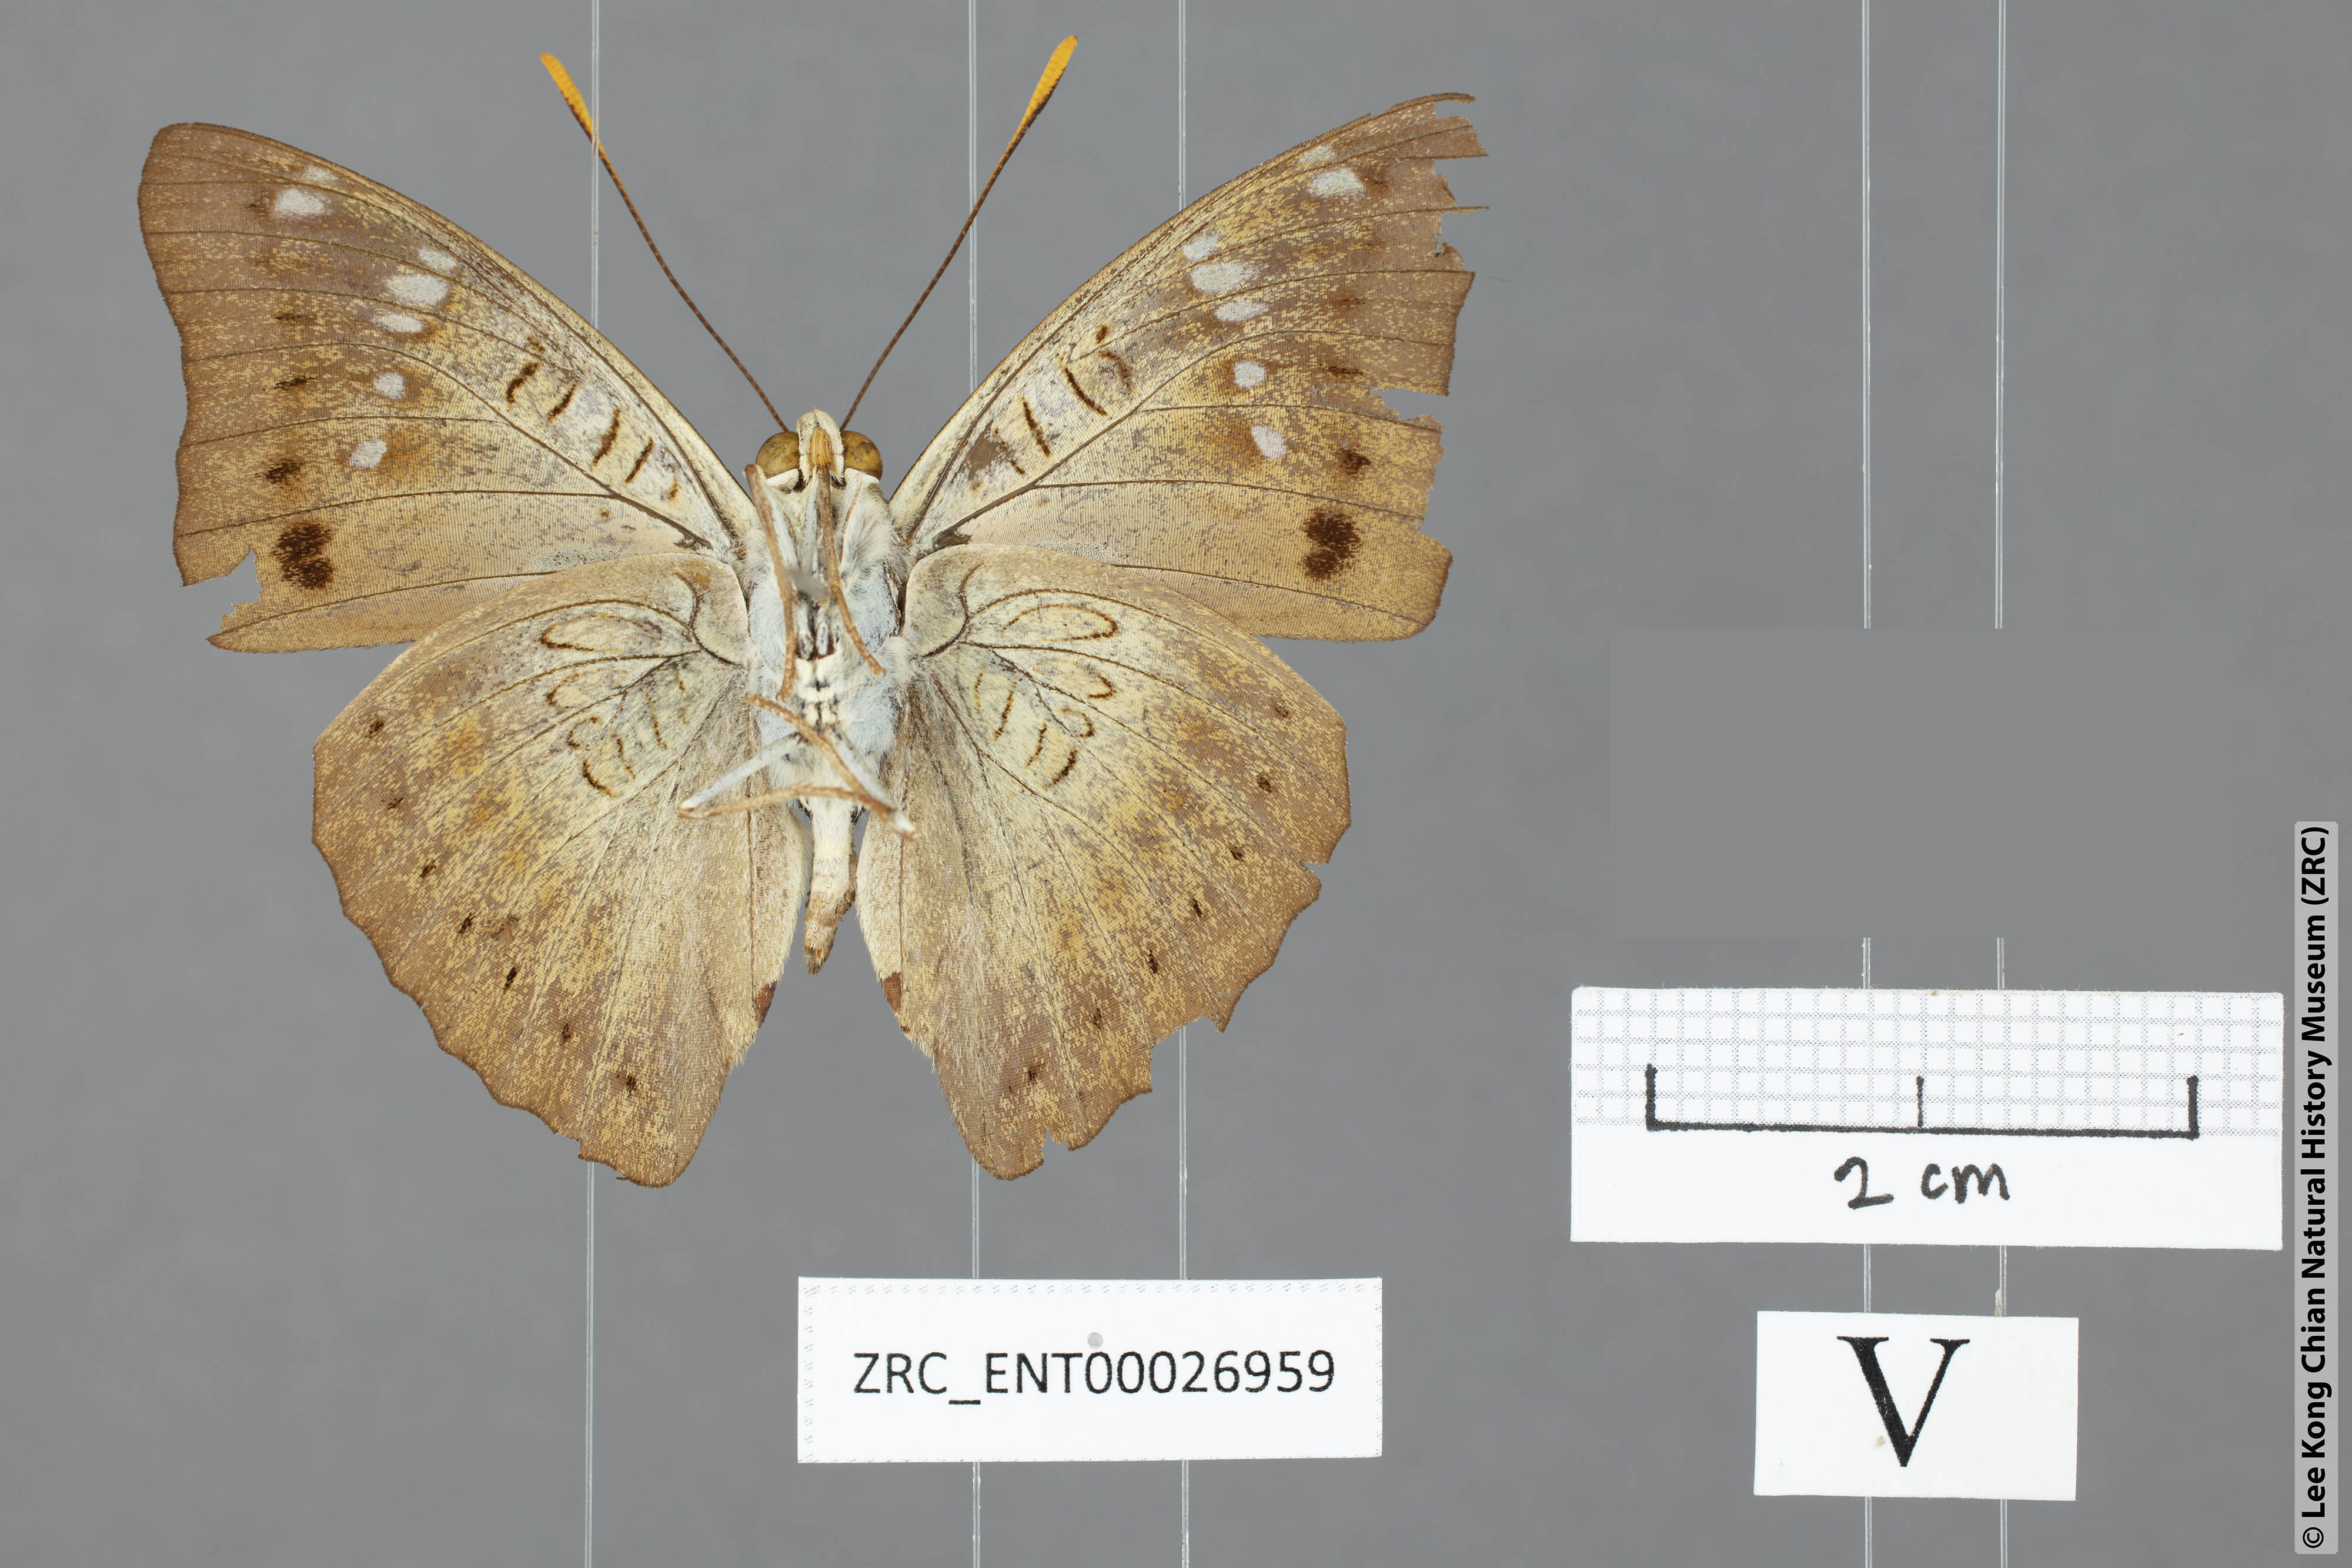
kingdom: Animalia
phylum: Arthropoda
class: Insecta
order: Lepidoptera
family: Nymphalidae
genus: Euthalia
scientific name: Euthalia agnis
